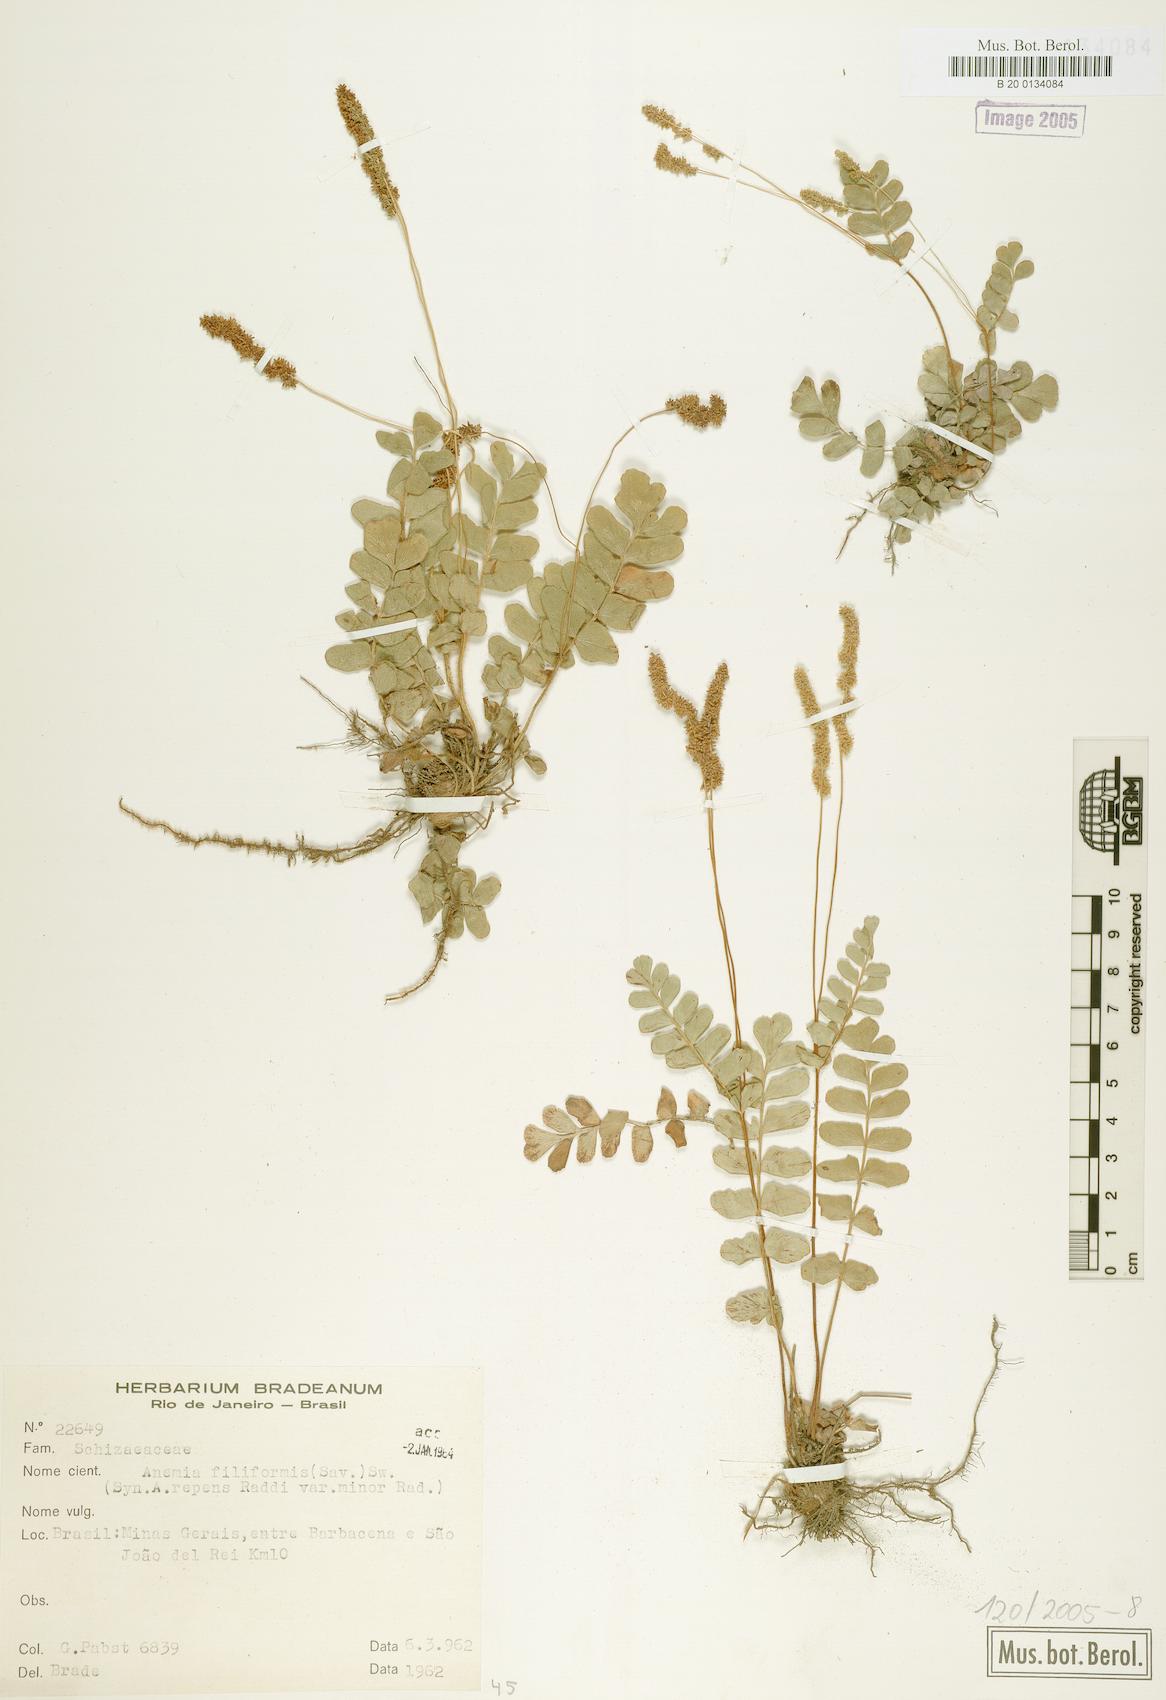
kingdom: Plantae
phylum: Tracheophyta
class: Polypodiopsida
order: Schizaeales
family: Anemiaceae
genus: Anemia
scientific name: Anemia oblongifolia
